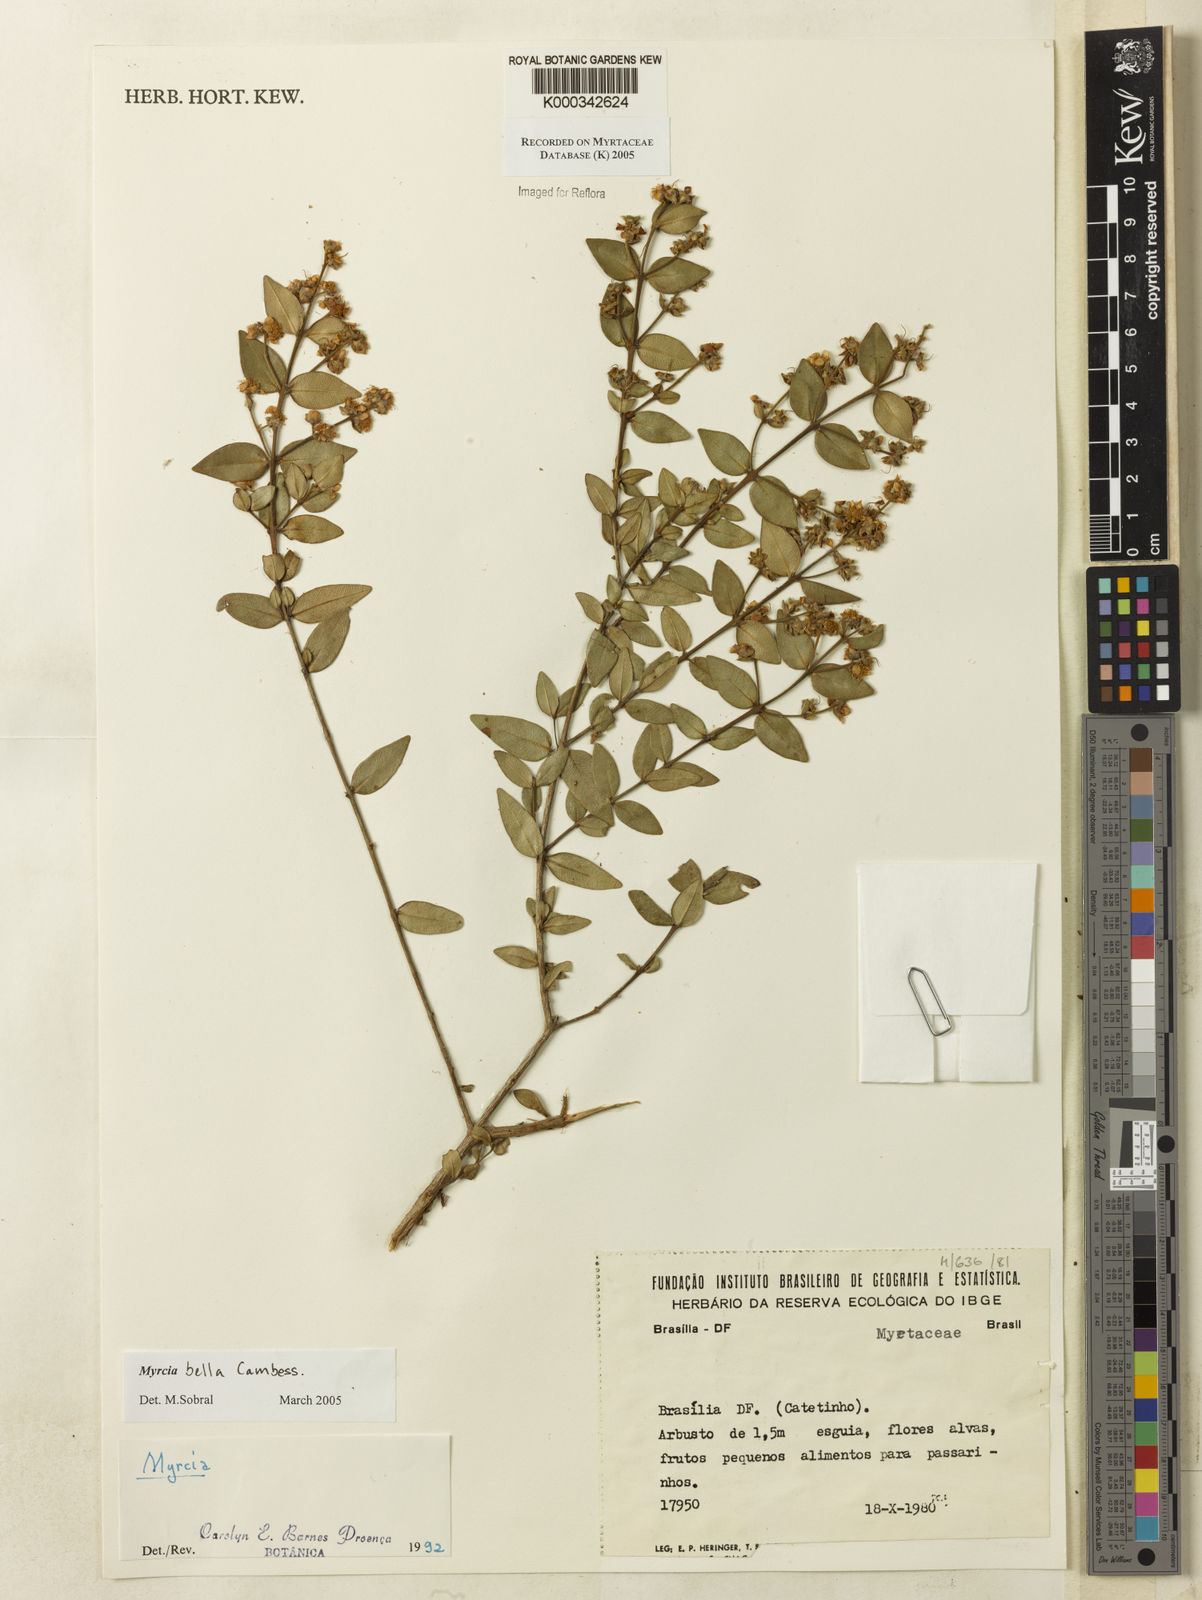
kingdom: Plantae
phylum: Tracheophyta
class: Magnoliopsida
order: Myrtales
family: Myrtaceae
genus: Myrcia
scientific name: Myrcia bella
